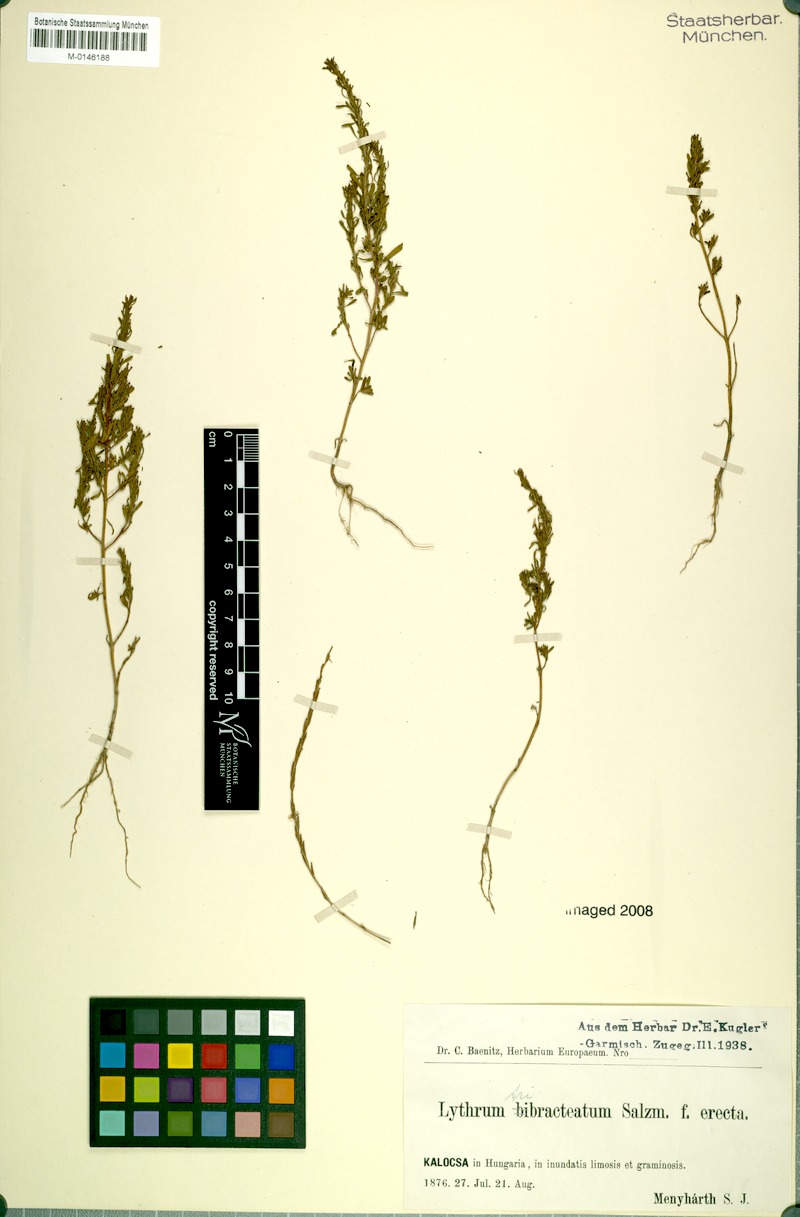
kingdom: Plantae
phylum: Tracheophyta
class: Magnoliopsida
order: Myrtales
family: Lythraceae
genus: Lythrum
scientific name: Lythrum tribracteatum
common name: Threebract loosestrife
